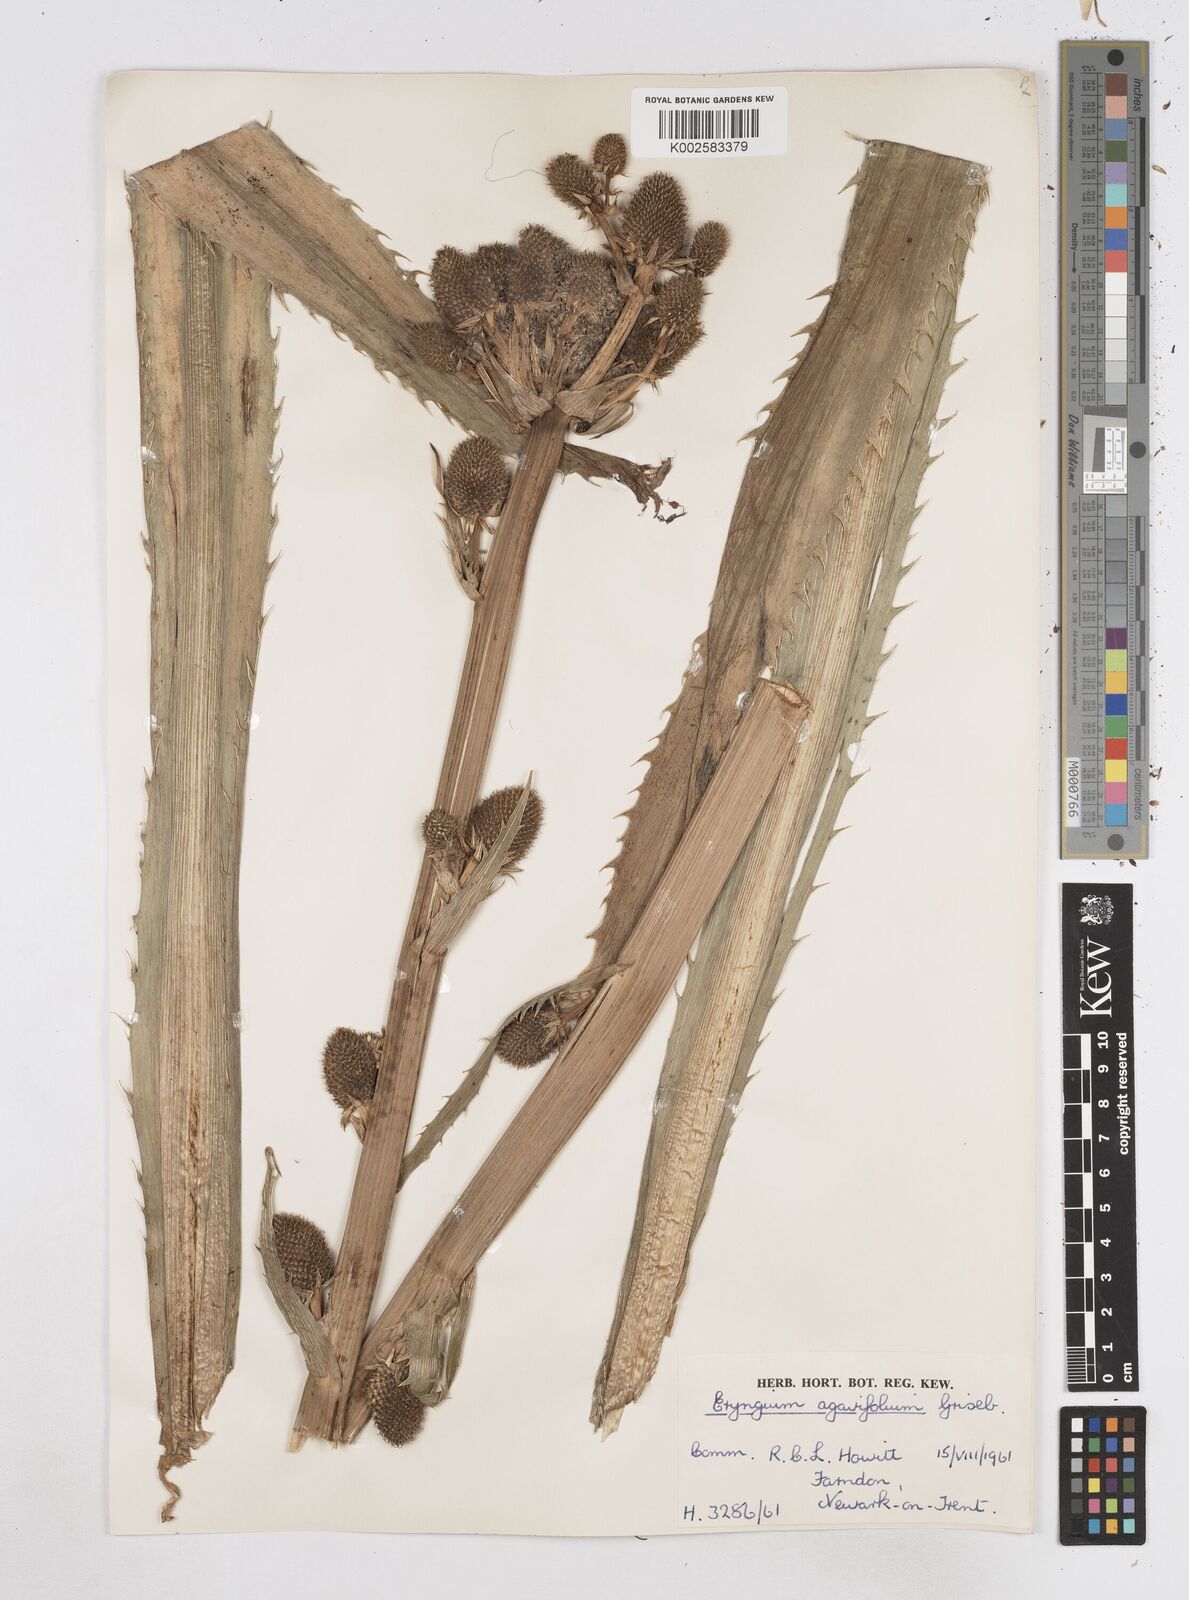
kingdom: Plantae
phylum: Tracheophyta
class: Magnoliopsida
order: Apiales
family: Apiaceae
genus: Eryngium
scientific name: Eryngium agavifolium
